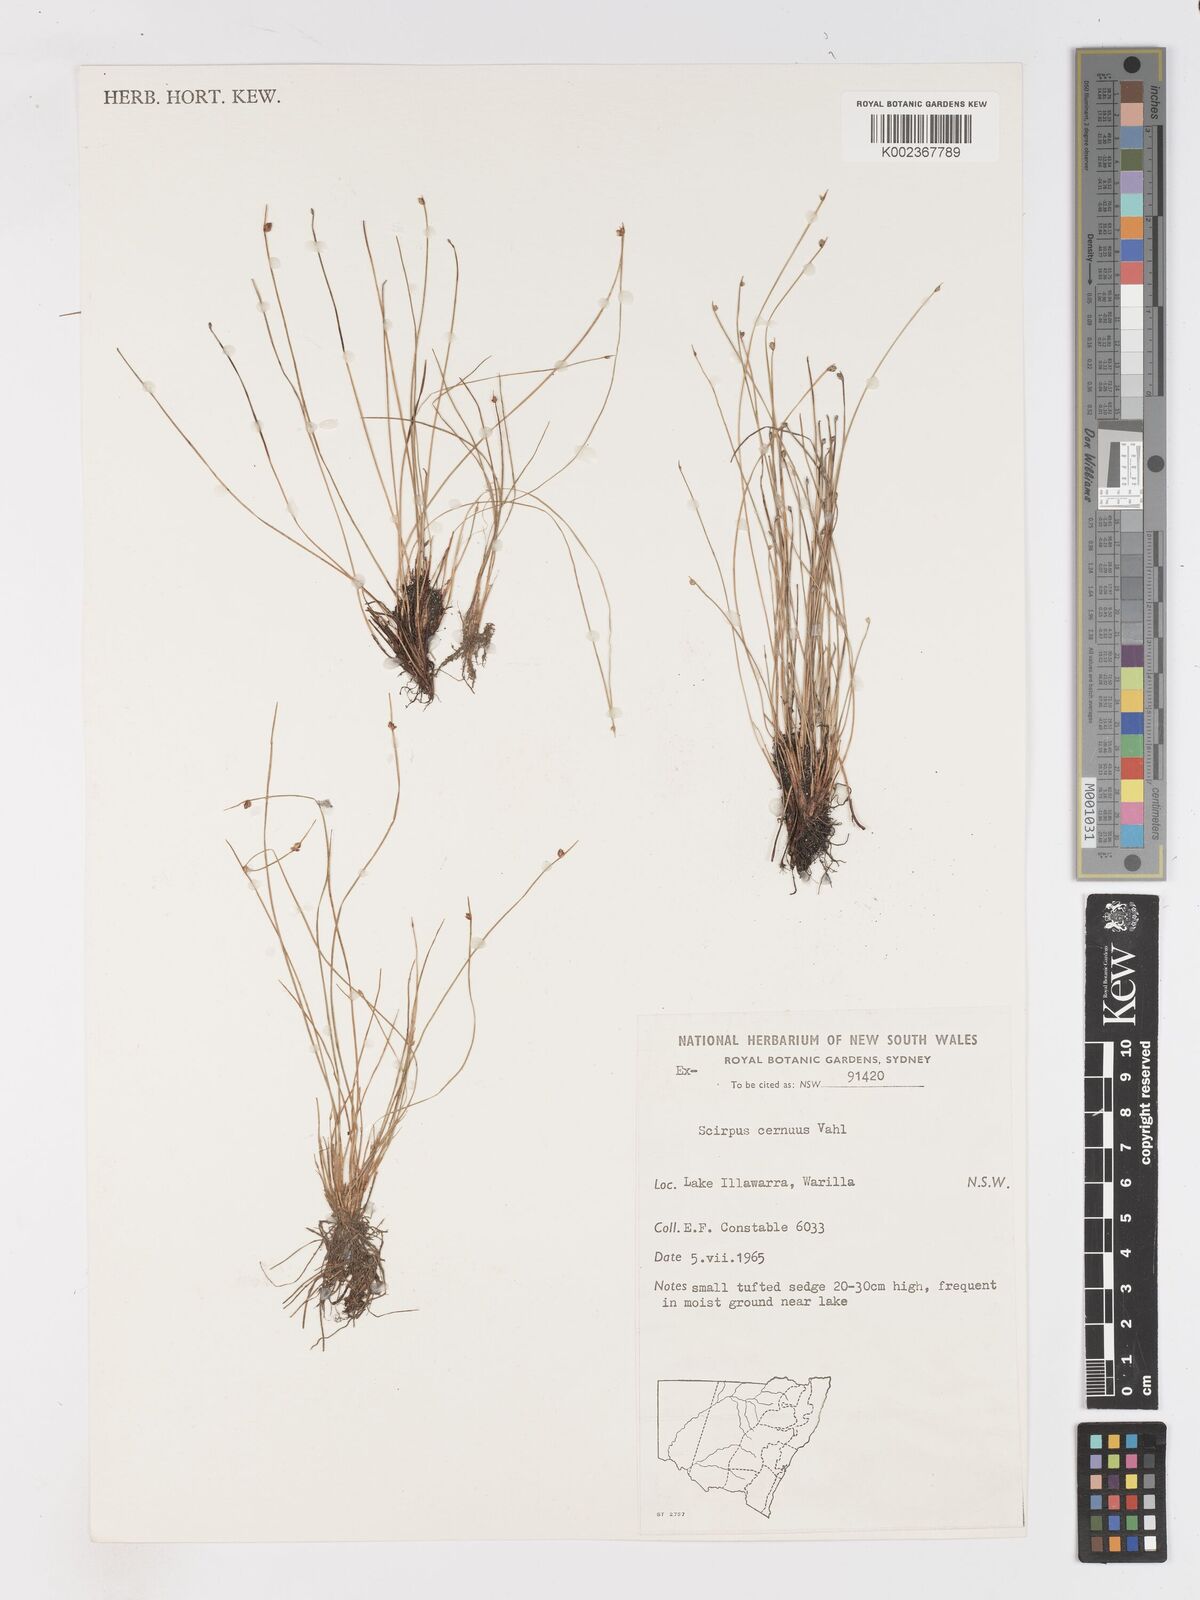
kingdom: Plantae
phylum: Tracheophyta
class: Liliopsida
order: Poales
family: Cyperaceae
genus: Isolepis
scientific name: Isolepis cernua
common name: Slender club-rush
